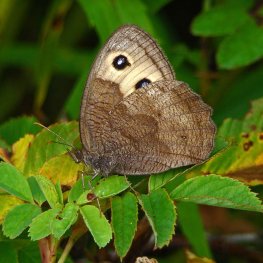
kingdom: Animalia
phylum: Arthropoda
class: Insecta
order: Lepidoptera
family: Nymphalidae
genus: Cercyonis
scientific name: Cercyonis pegala
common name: Common Wood-Nymph
